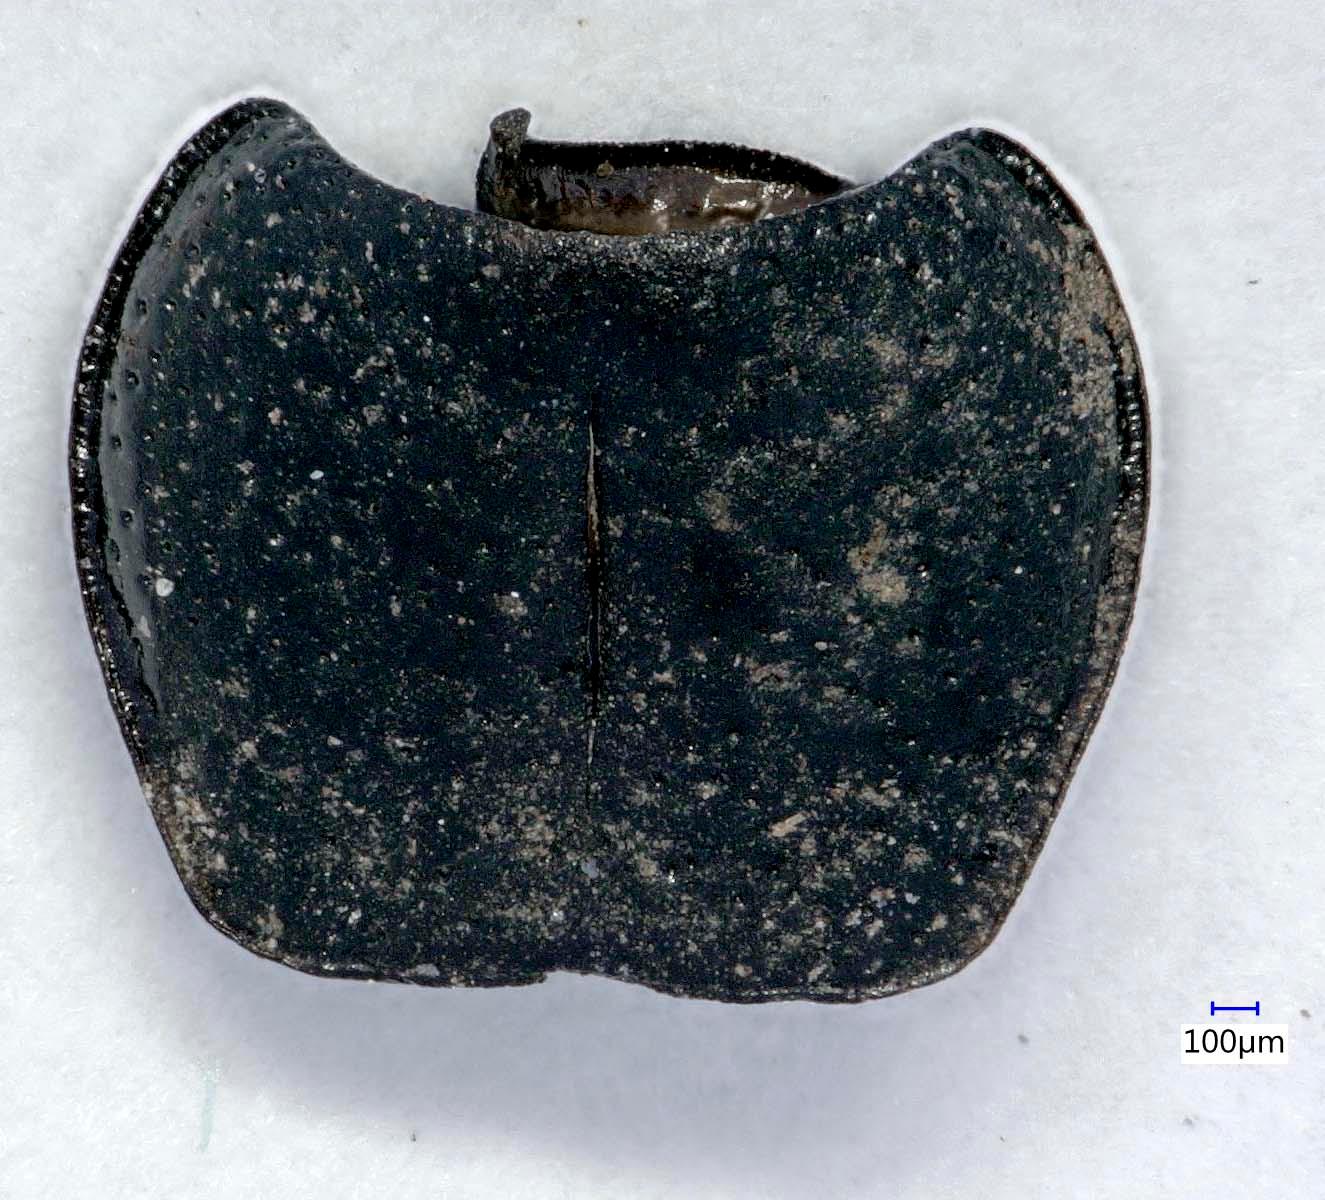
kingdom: Animalia
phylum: Arthropoda
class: Insecta
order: Coleoptera
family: Carabidae
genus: Dicheirus
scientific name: Dicheirus dilatatus
